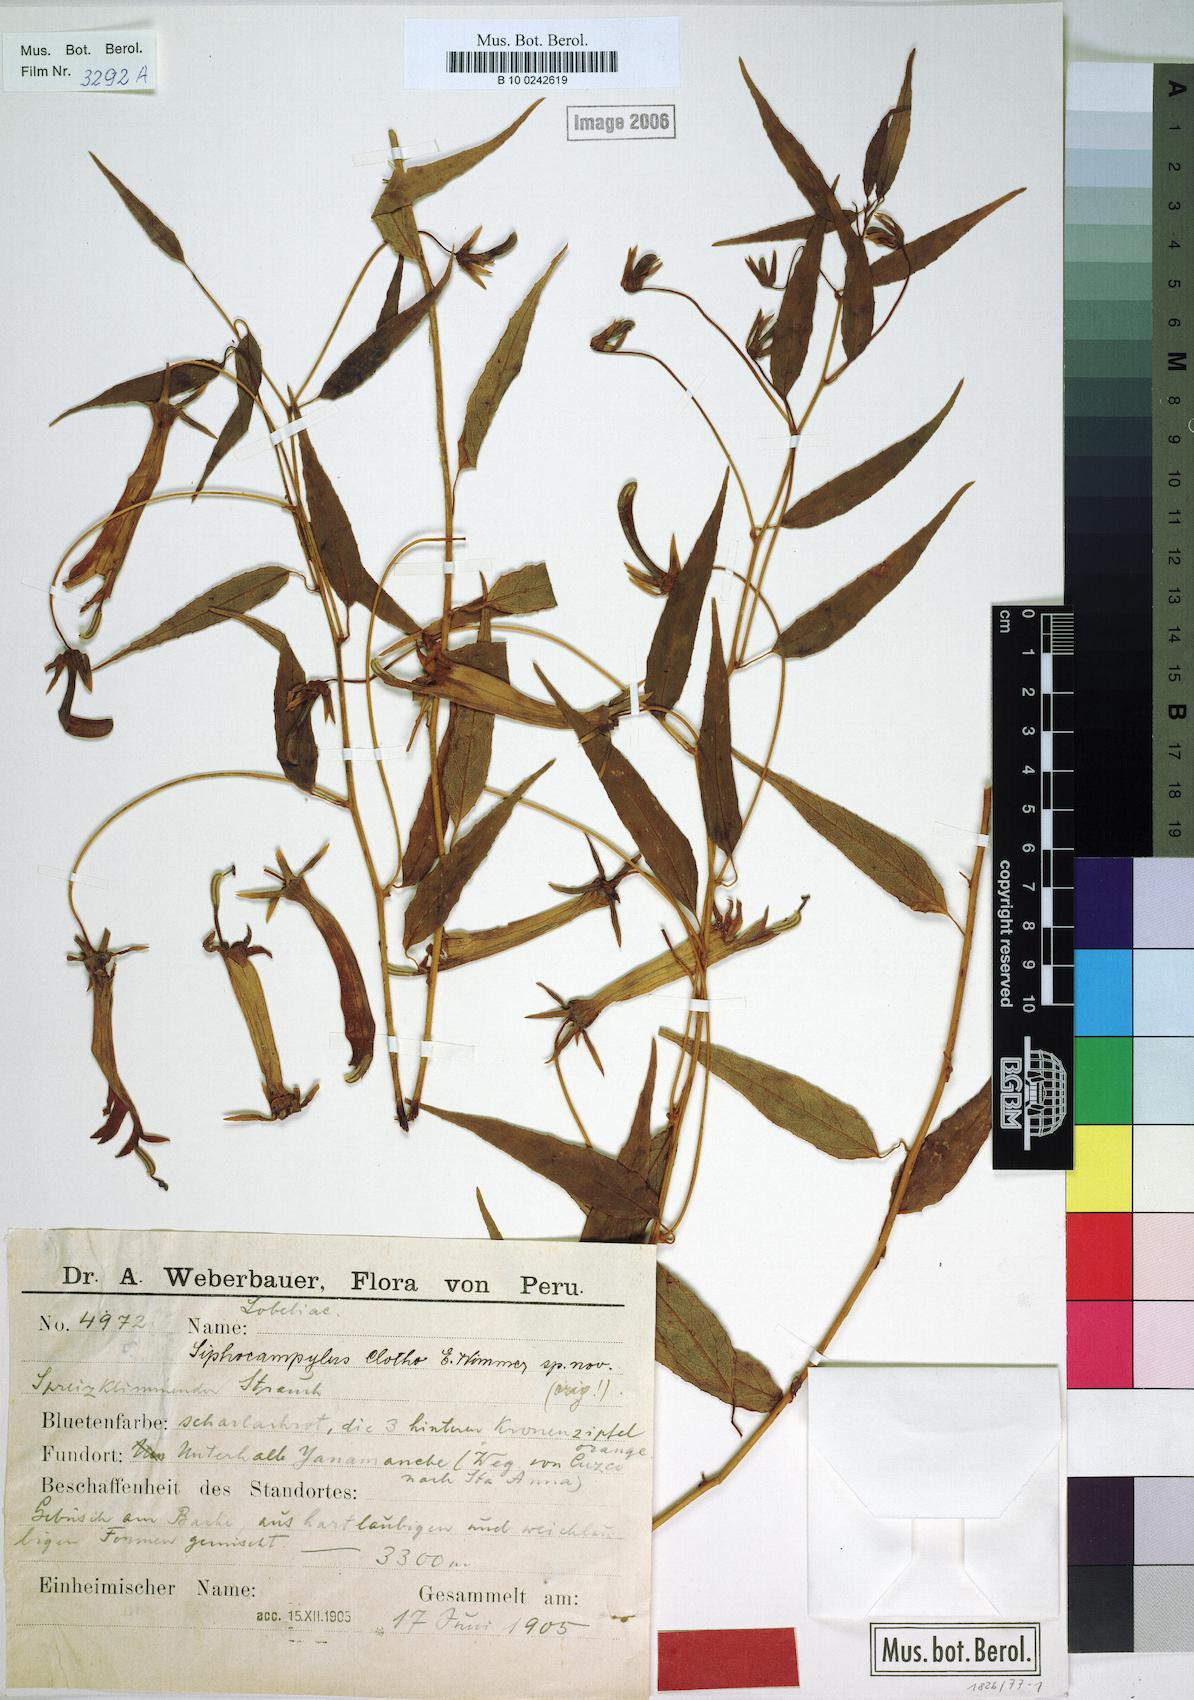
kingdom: Plantae
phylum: Tracheophyta
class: Magnoliopsida
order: Asterales
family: Campanulaceae
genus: Siphocampylus
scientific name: Siphocampylus clotho
